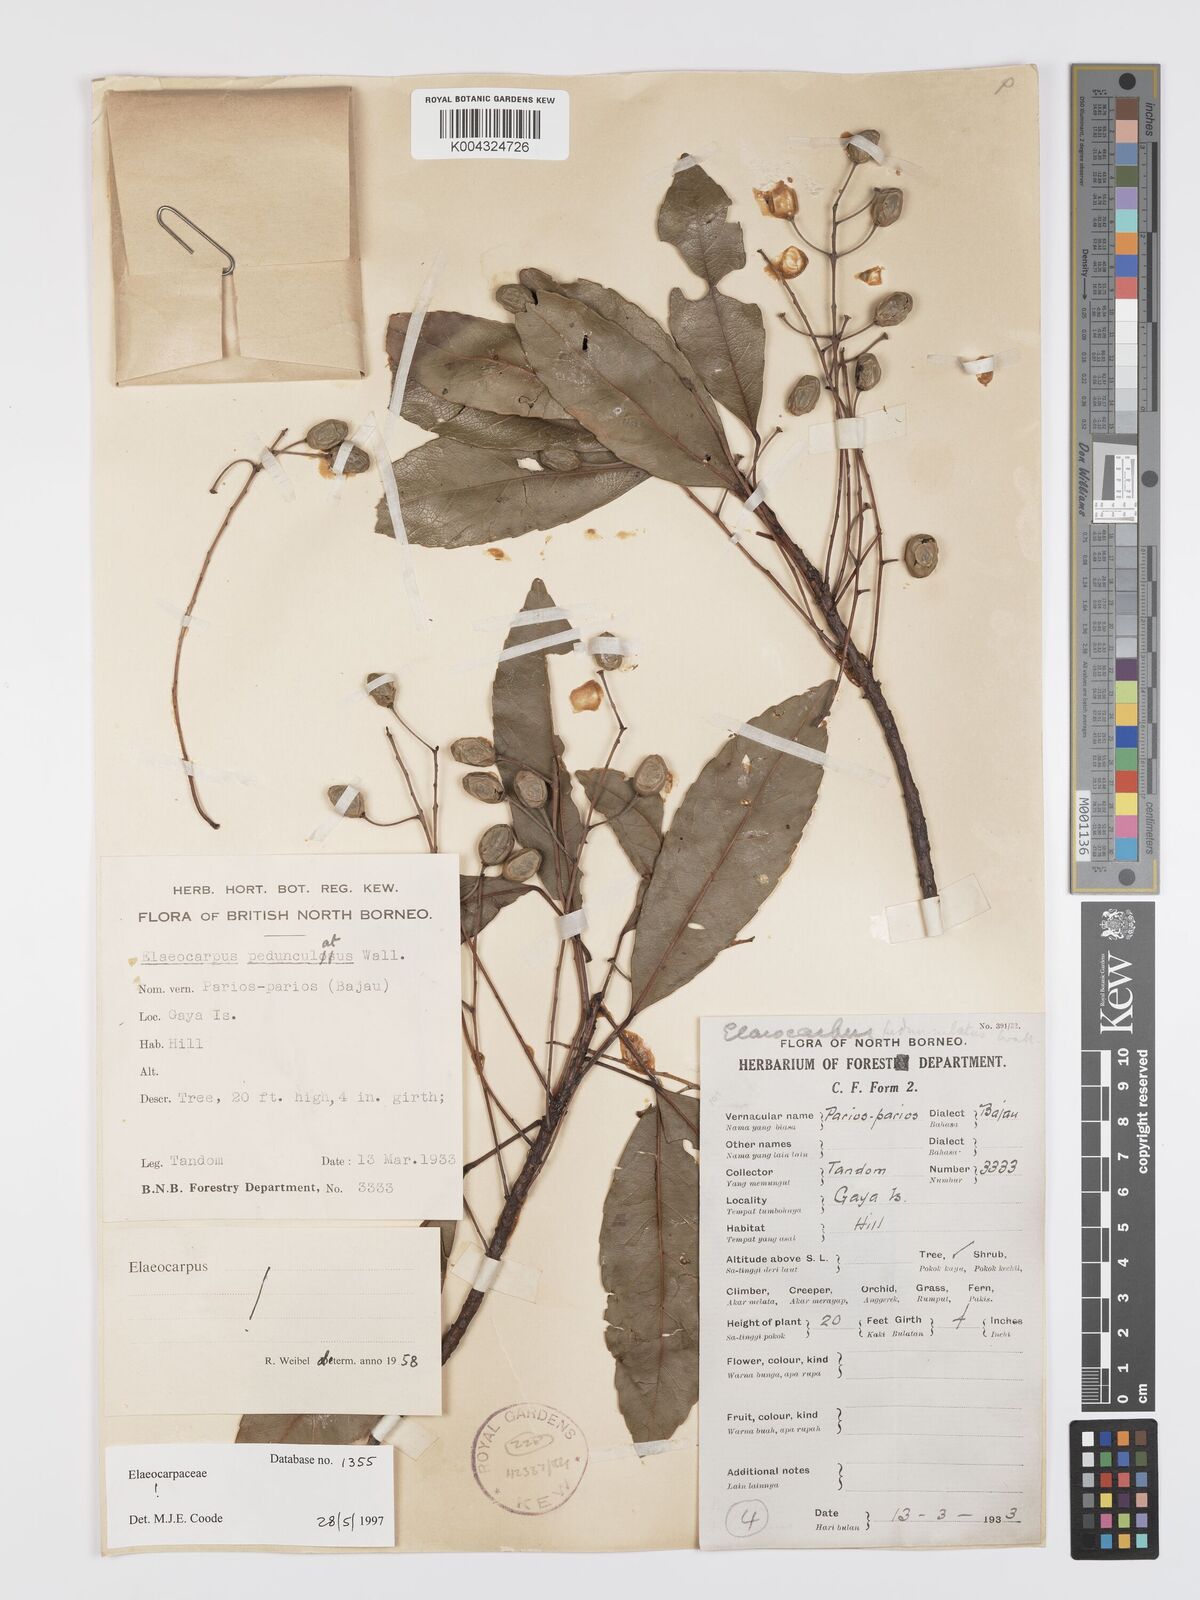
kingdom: Plantae
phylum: Tracheophyta
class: Magnoliopsida
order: Oxalidales
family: Elaeocarpaceae
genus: Elaeocarpus
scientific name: Elaeocarpus pedunculatus
